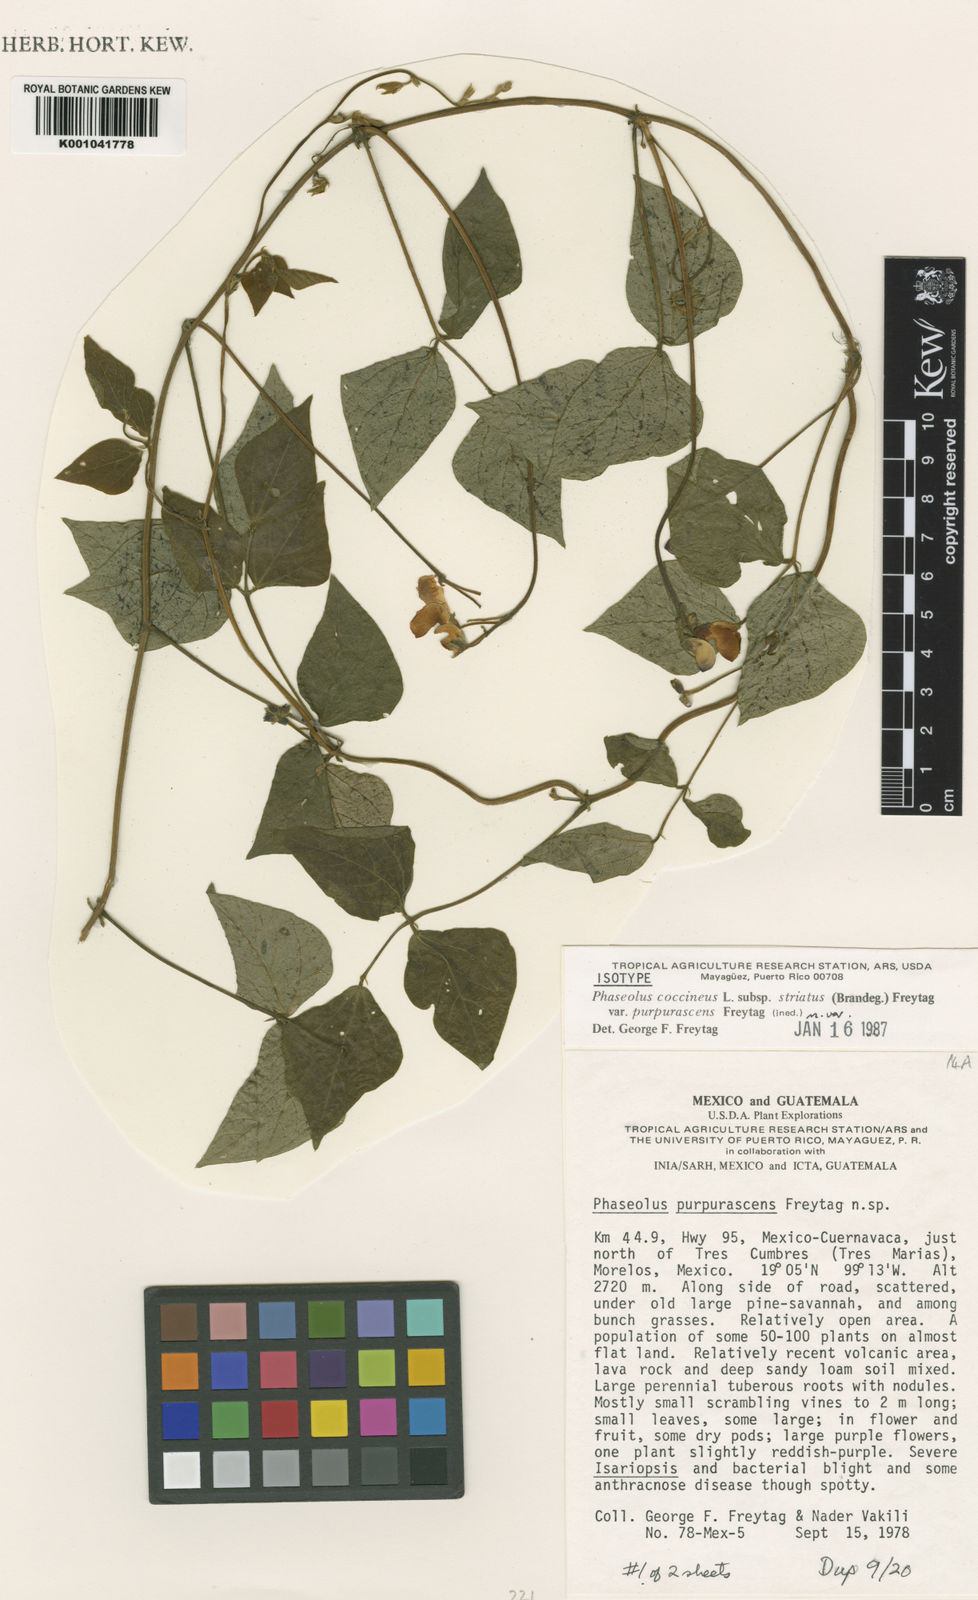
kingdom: Plantae
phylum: Tracheophyta
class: Magnoliopsida
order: Fabales
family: Fabaceae
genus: Phaseolus
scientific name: Phaseolus coccineus
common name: Runner bean
